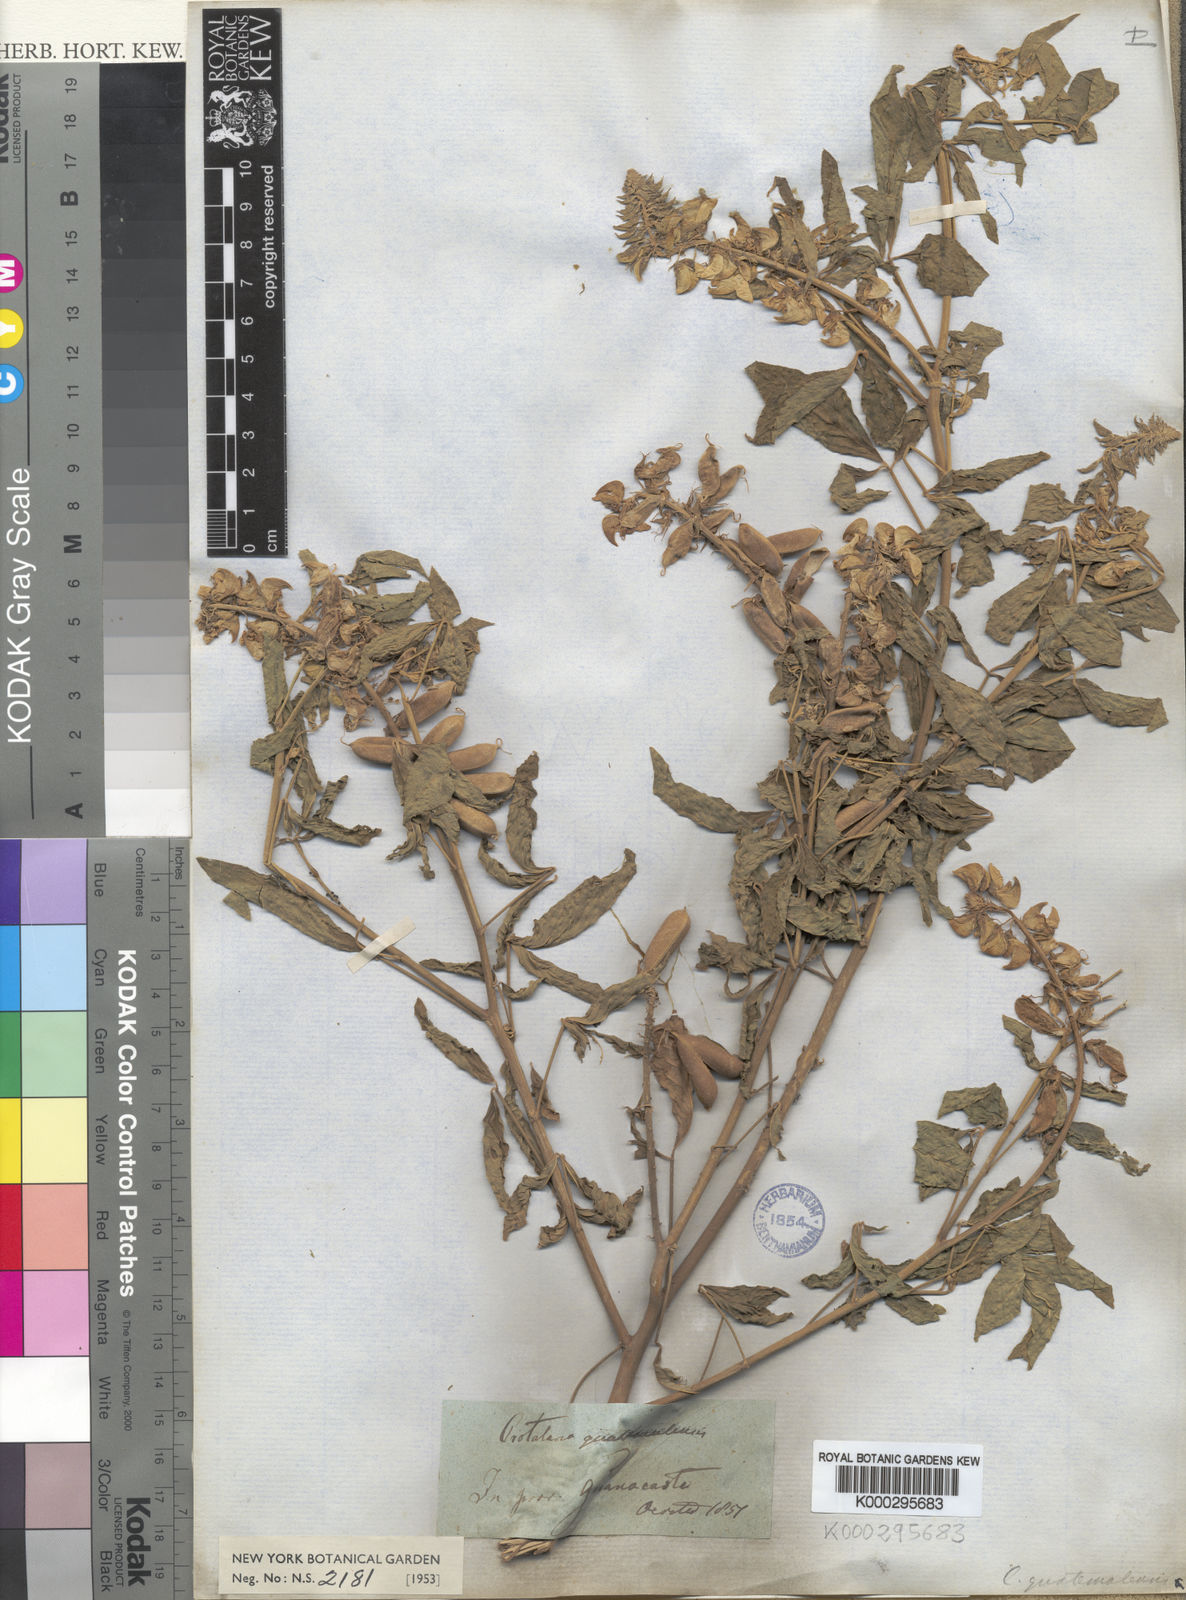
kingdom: Plantae
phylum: Tracheophyta
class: Magnoliopsida
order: Fabales
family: Fabaceae
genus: Crotalaria
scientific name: Crotalaria cajanifolia
